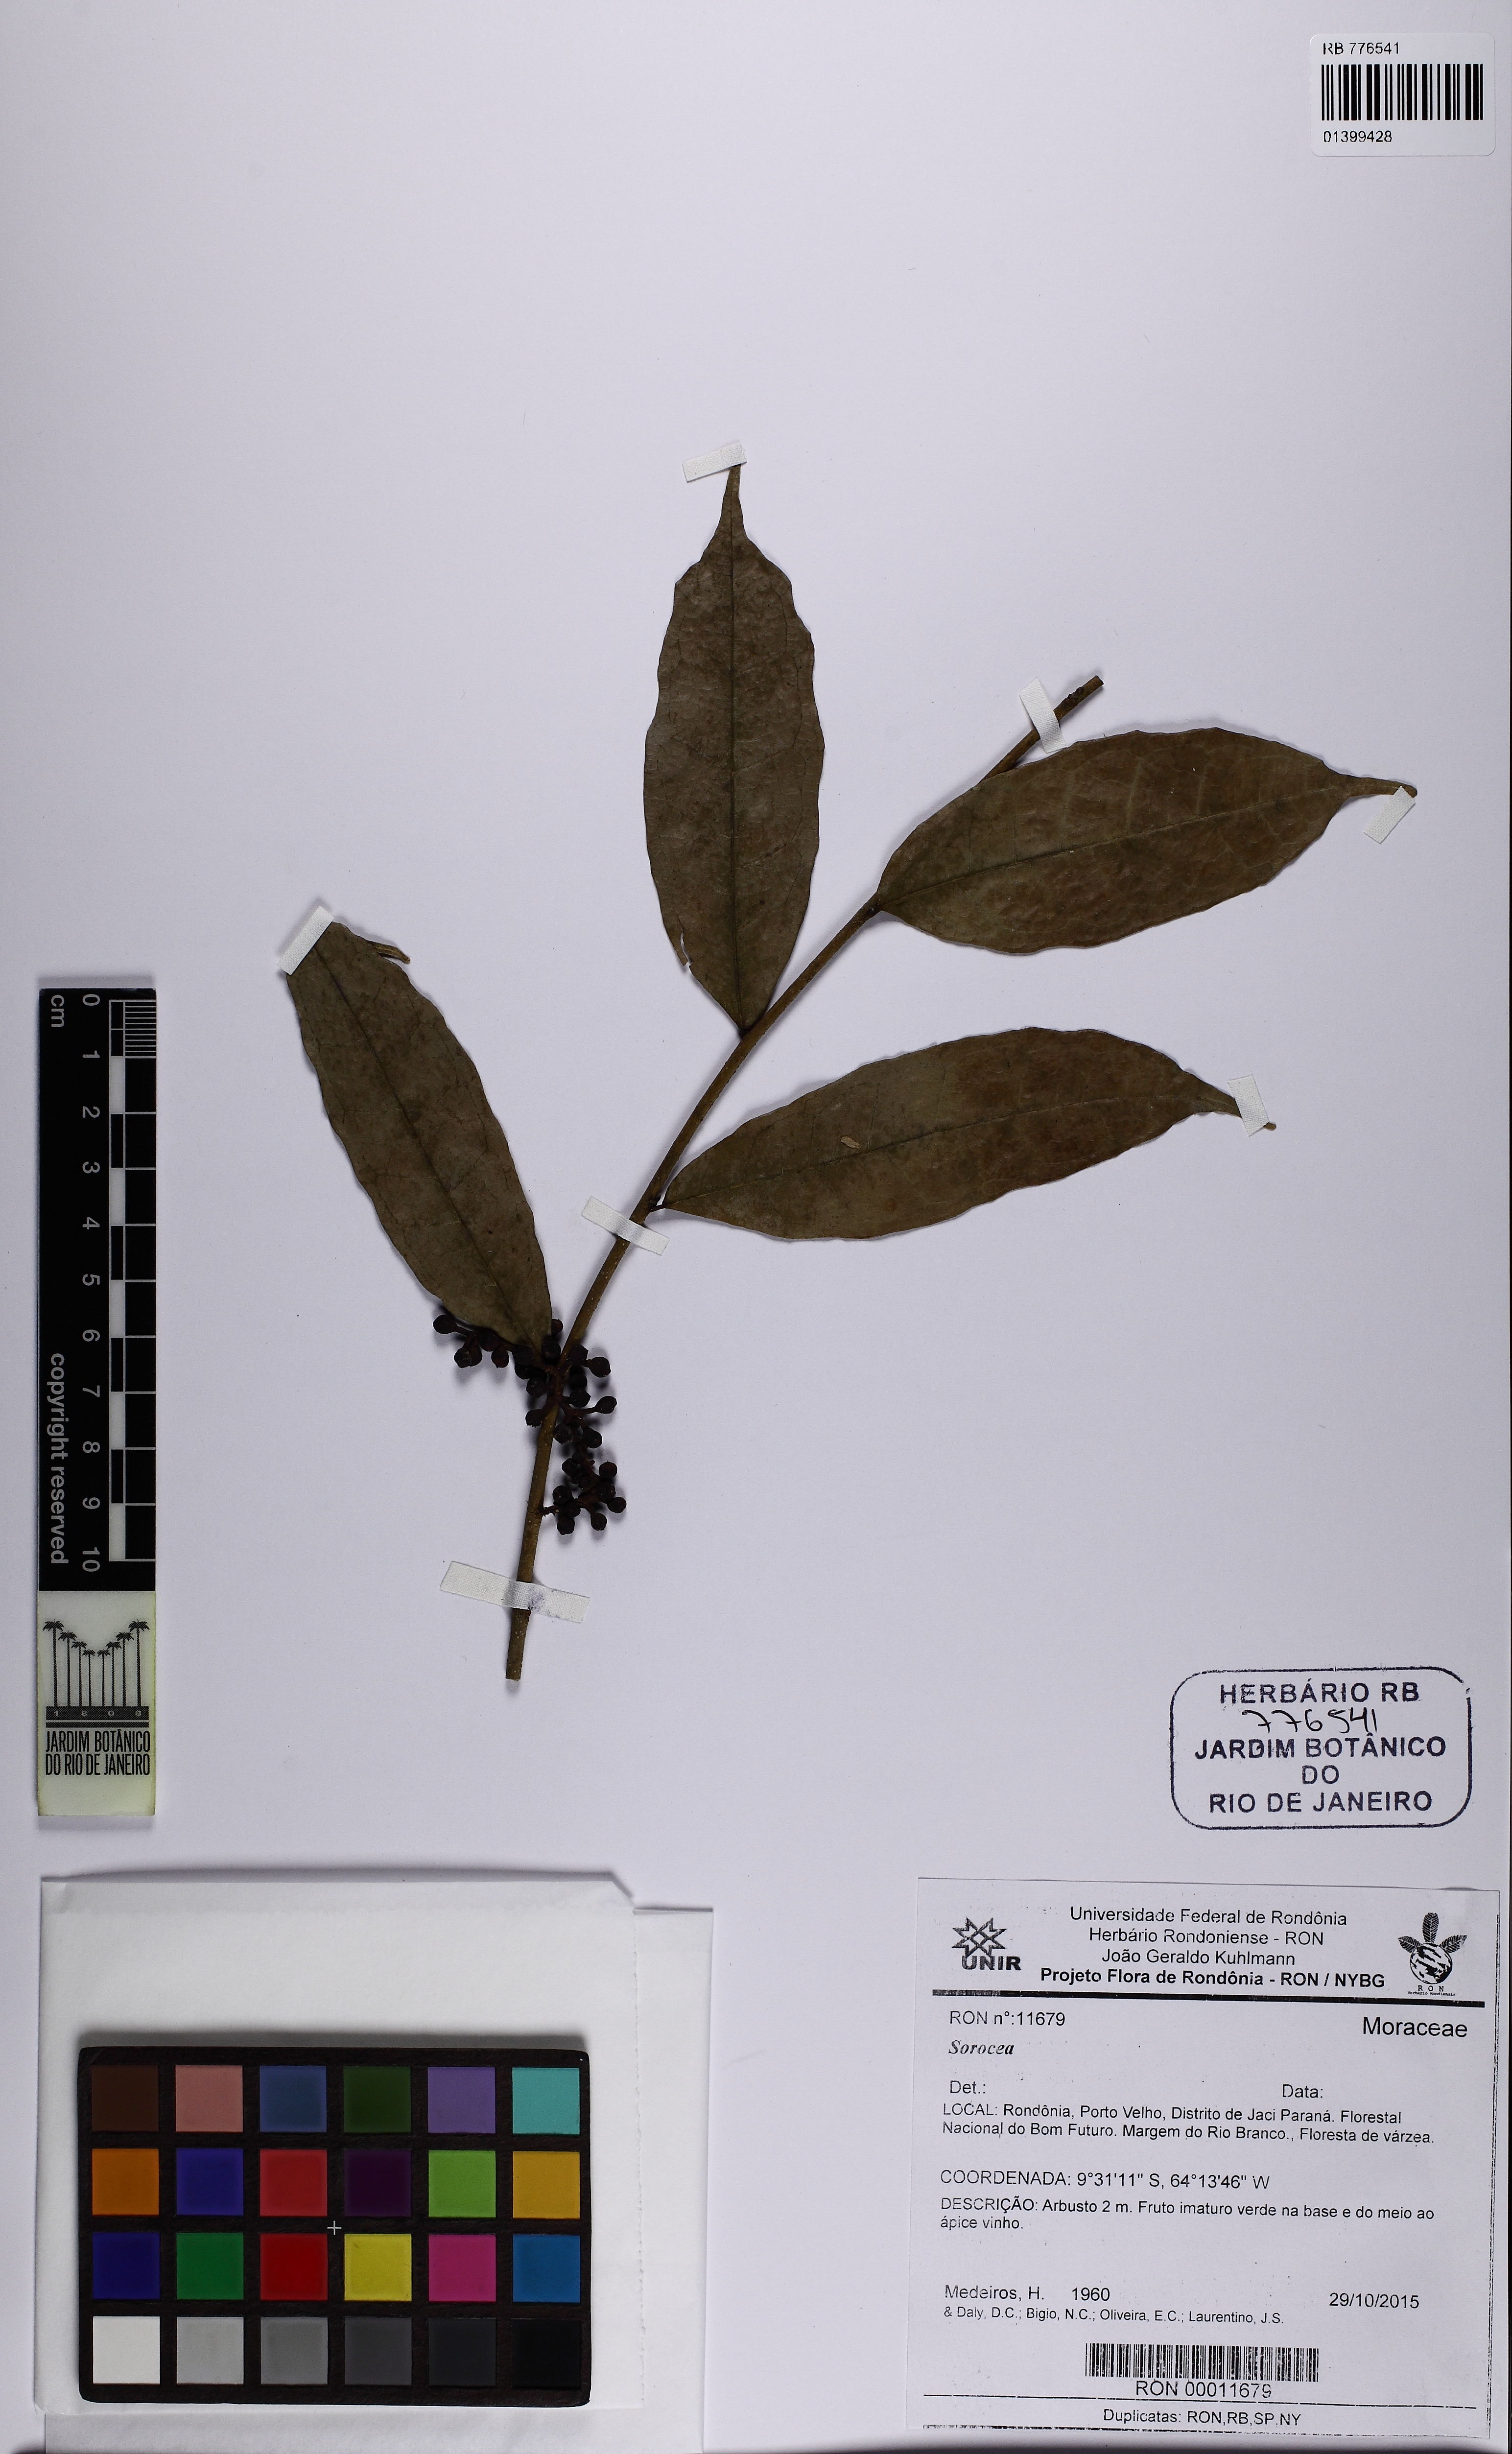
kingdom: Plantae
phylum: Tracheophyta
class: Magnoliopsida
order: Rosales
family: Moraceae
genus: Sorocea
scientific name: Sorocea
